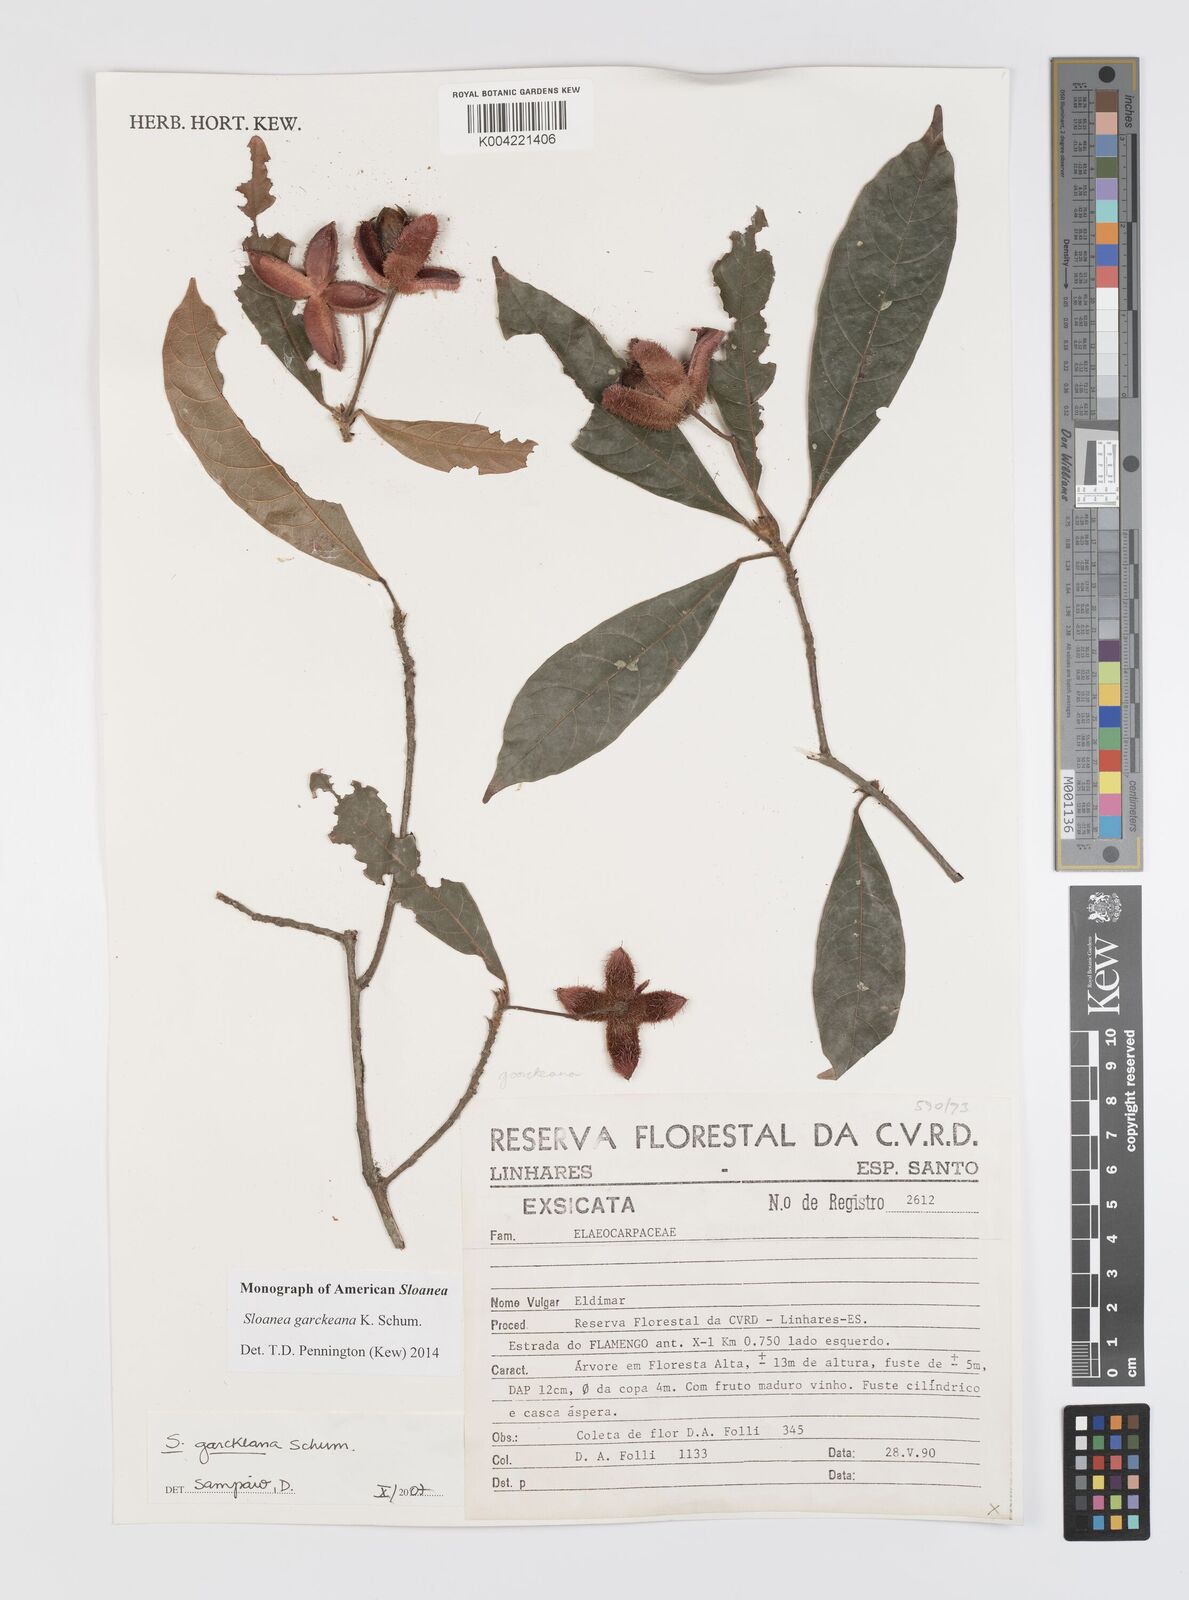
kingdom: Plantae
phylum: Tracheophyta
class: Magnoliopsida
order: Oxalidales
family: Elaeocarpaceae
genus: Sloanea
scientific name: Sloanea garckeana
